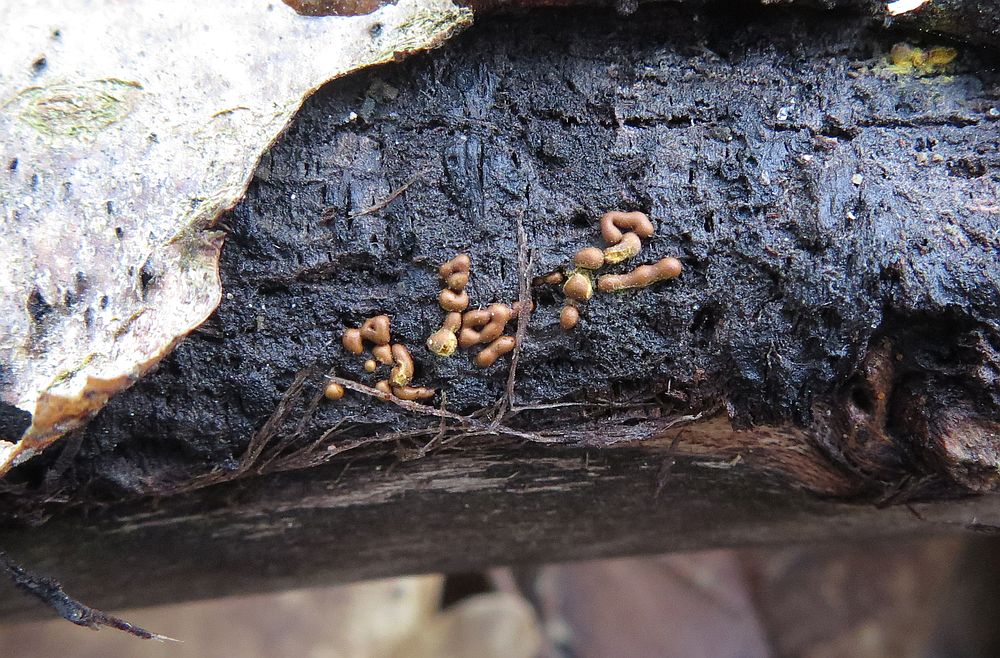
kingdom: Protozoa
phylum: Mycetozoa
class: Myxomycetes
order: Trichiales
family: Trichiaceae
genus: Hemitrichia
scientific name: Hemitrichia karstenii
